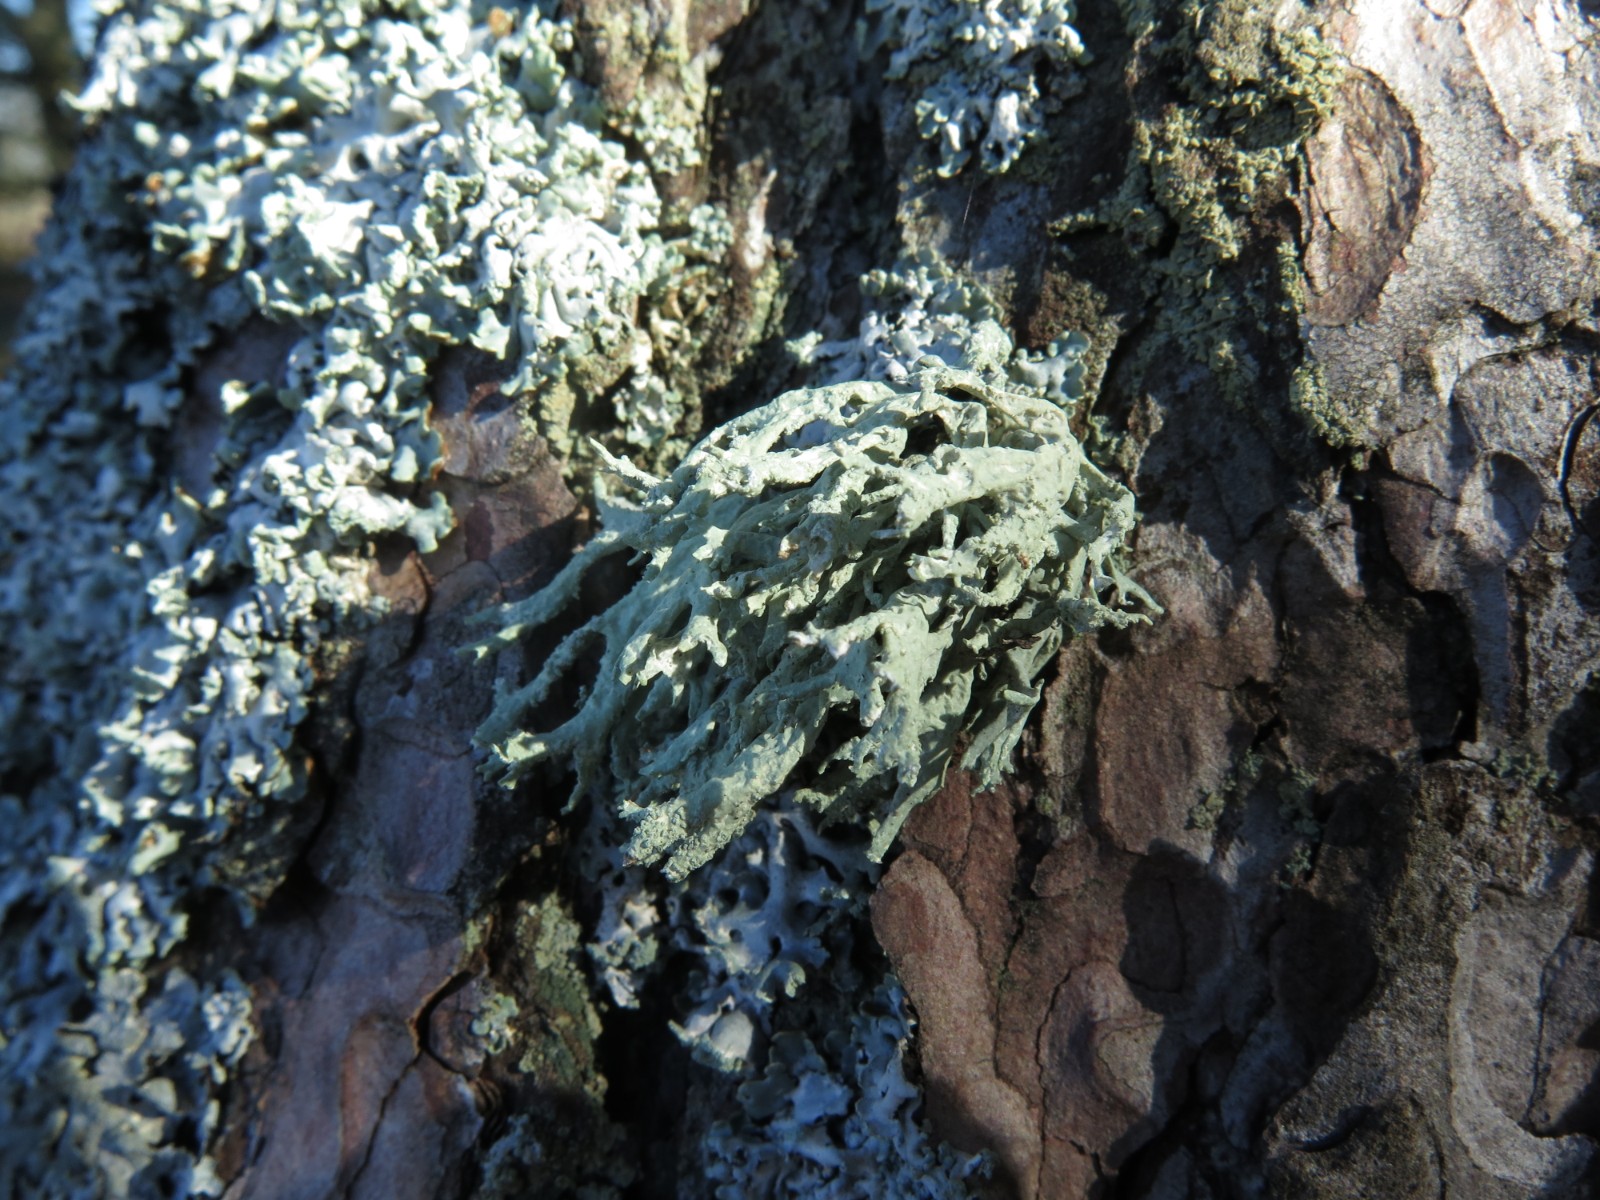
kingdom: Fungi
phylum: Ascomycota
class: Lecanoromycetes
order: Lecanorales
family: Ramalinaceae
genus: Ramalina
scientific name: Ramalina farinacea
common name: melet grenlav
